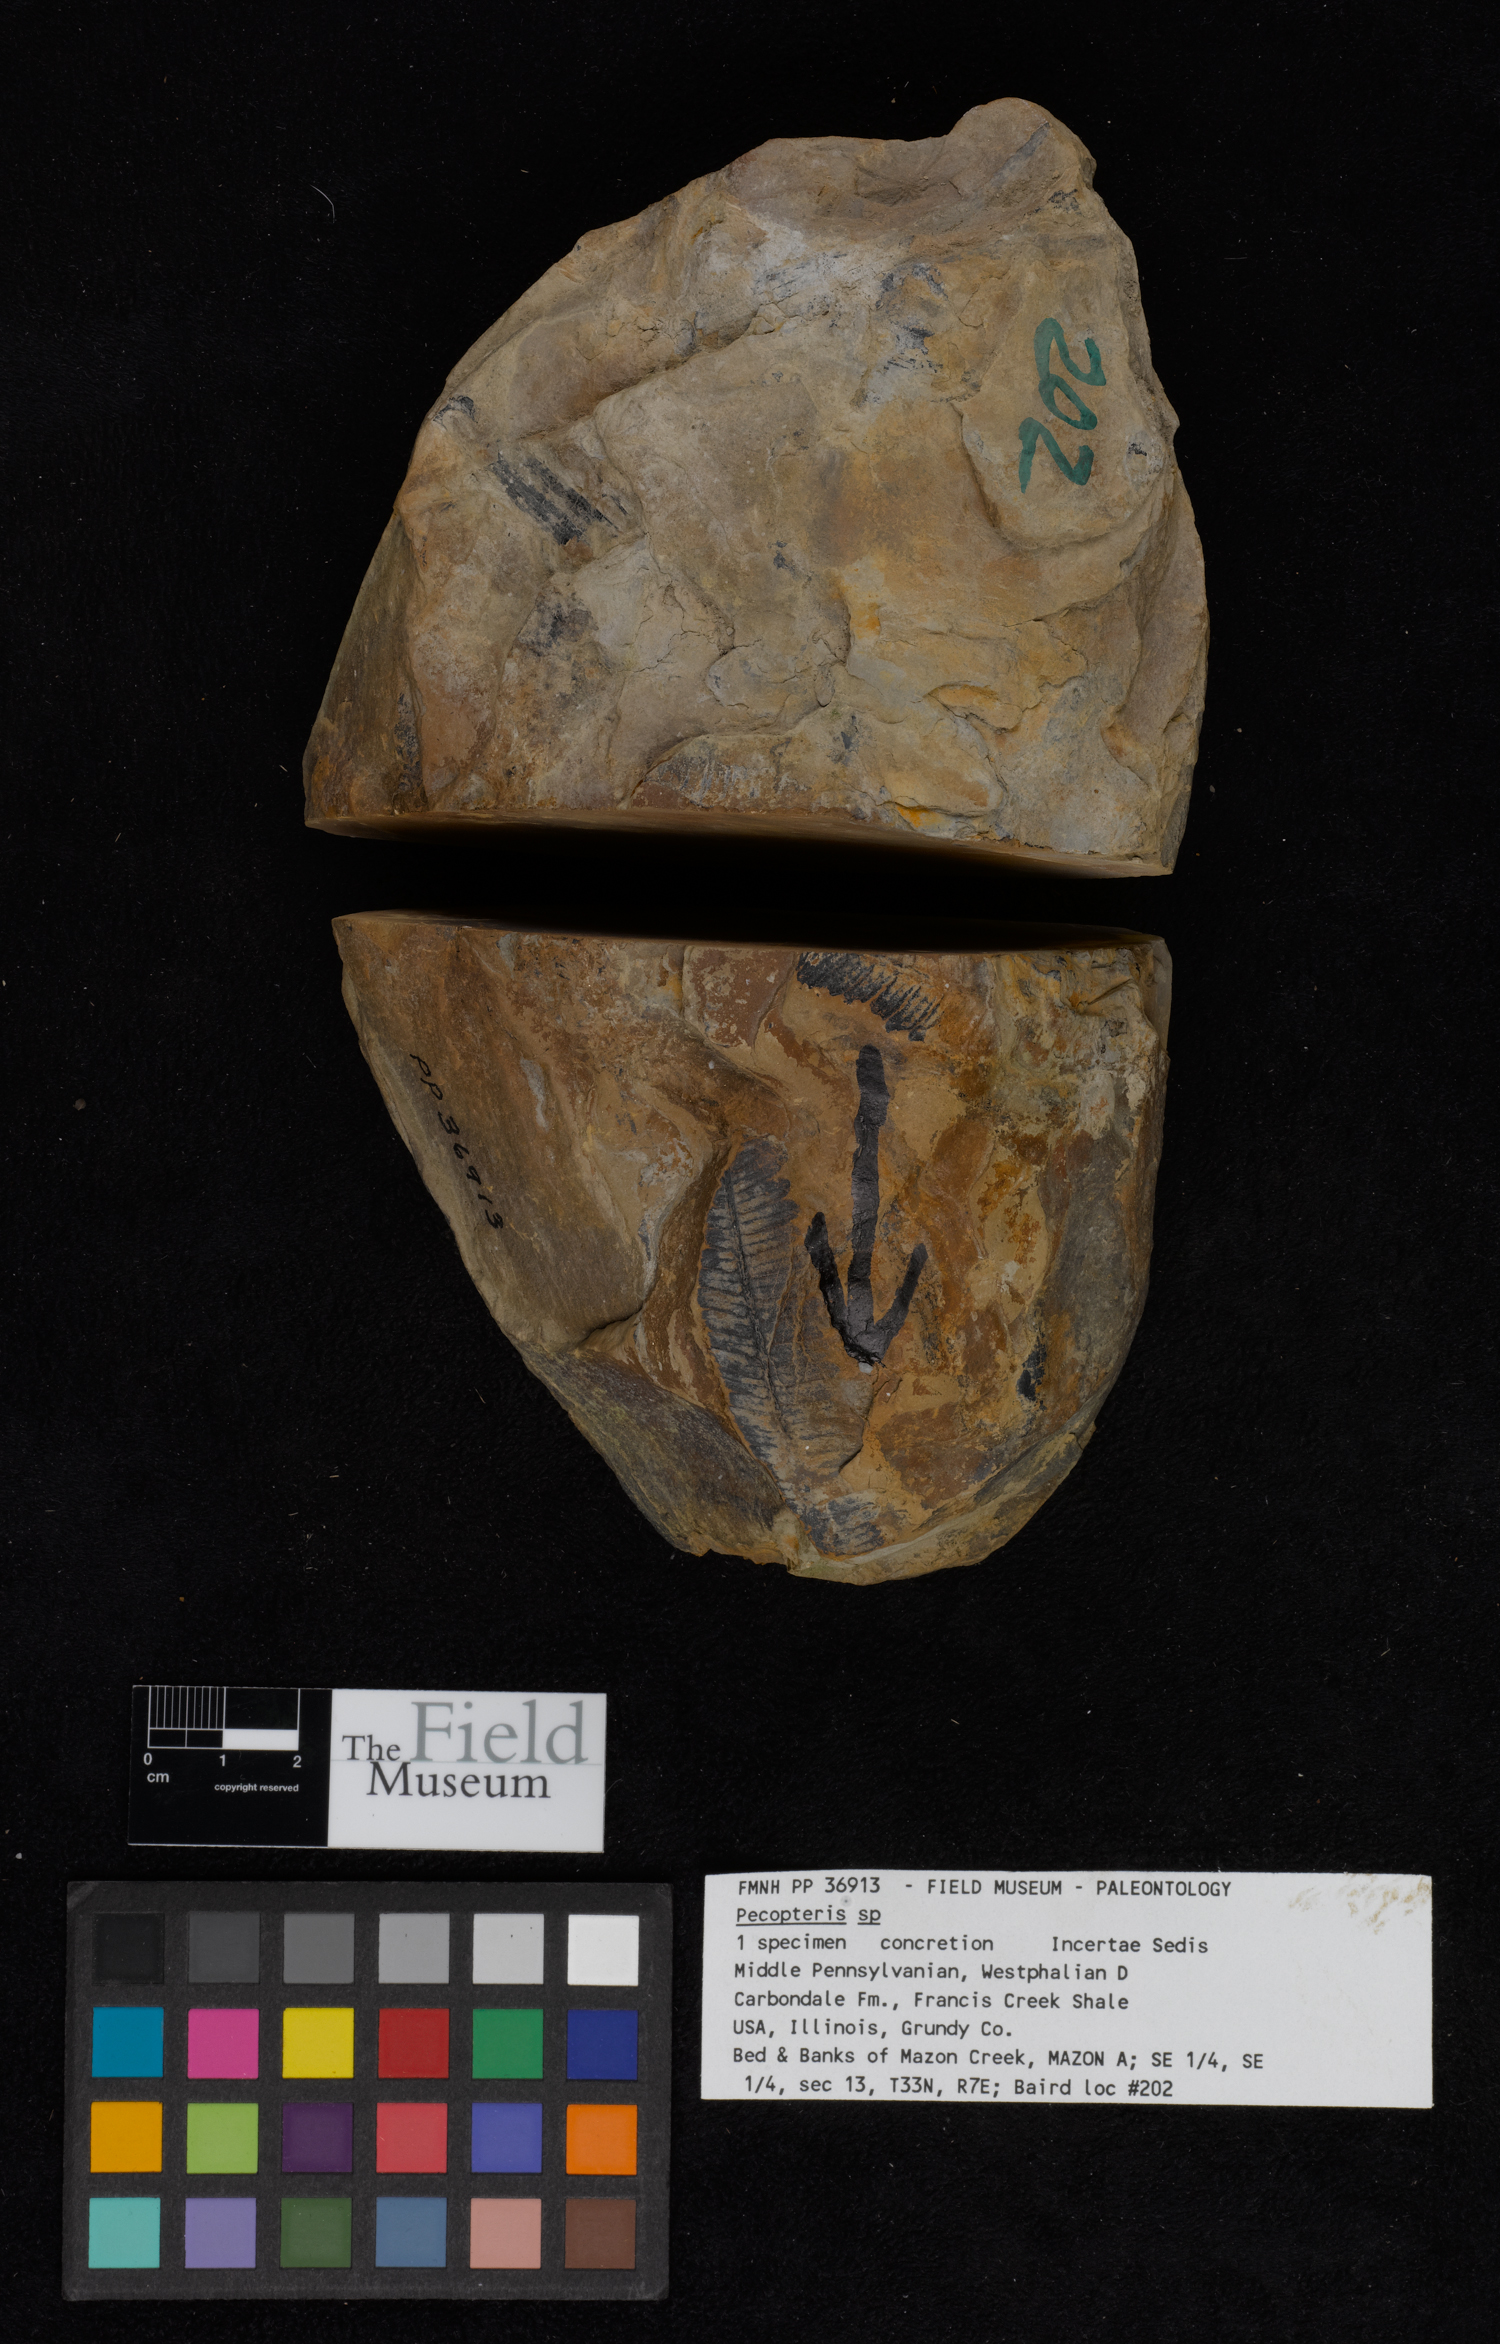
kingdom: Plantae
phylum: Tracheophyta
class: Polypodiopsida
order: Marattiales
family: Asterothecaceae
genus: Pecopteris
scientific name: Pecopteris
